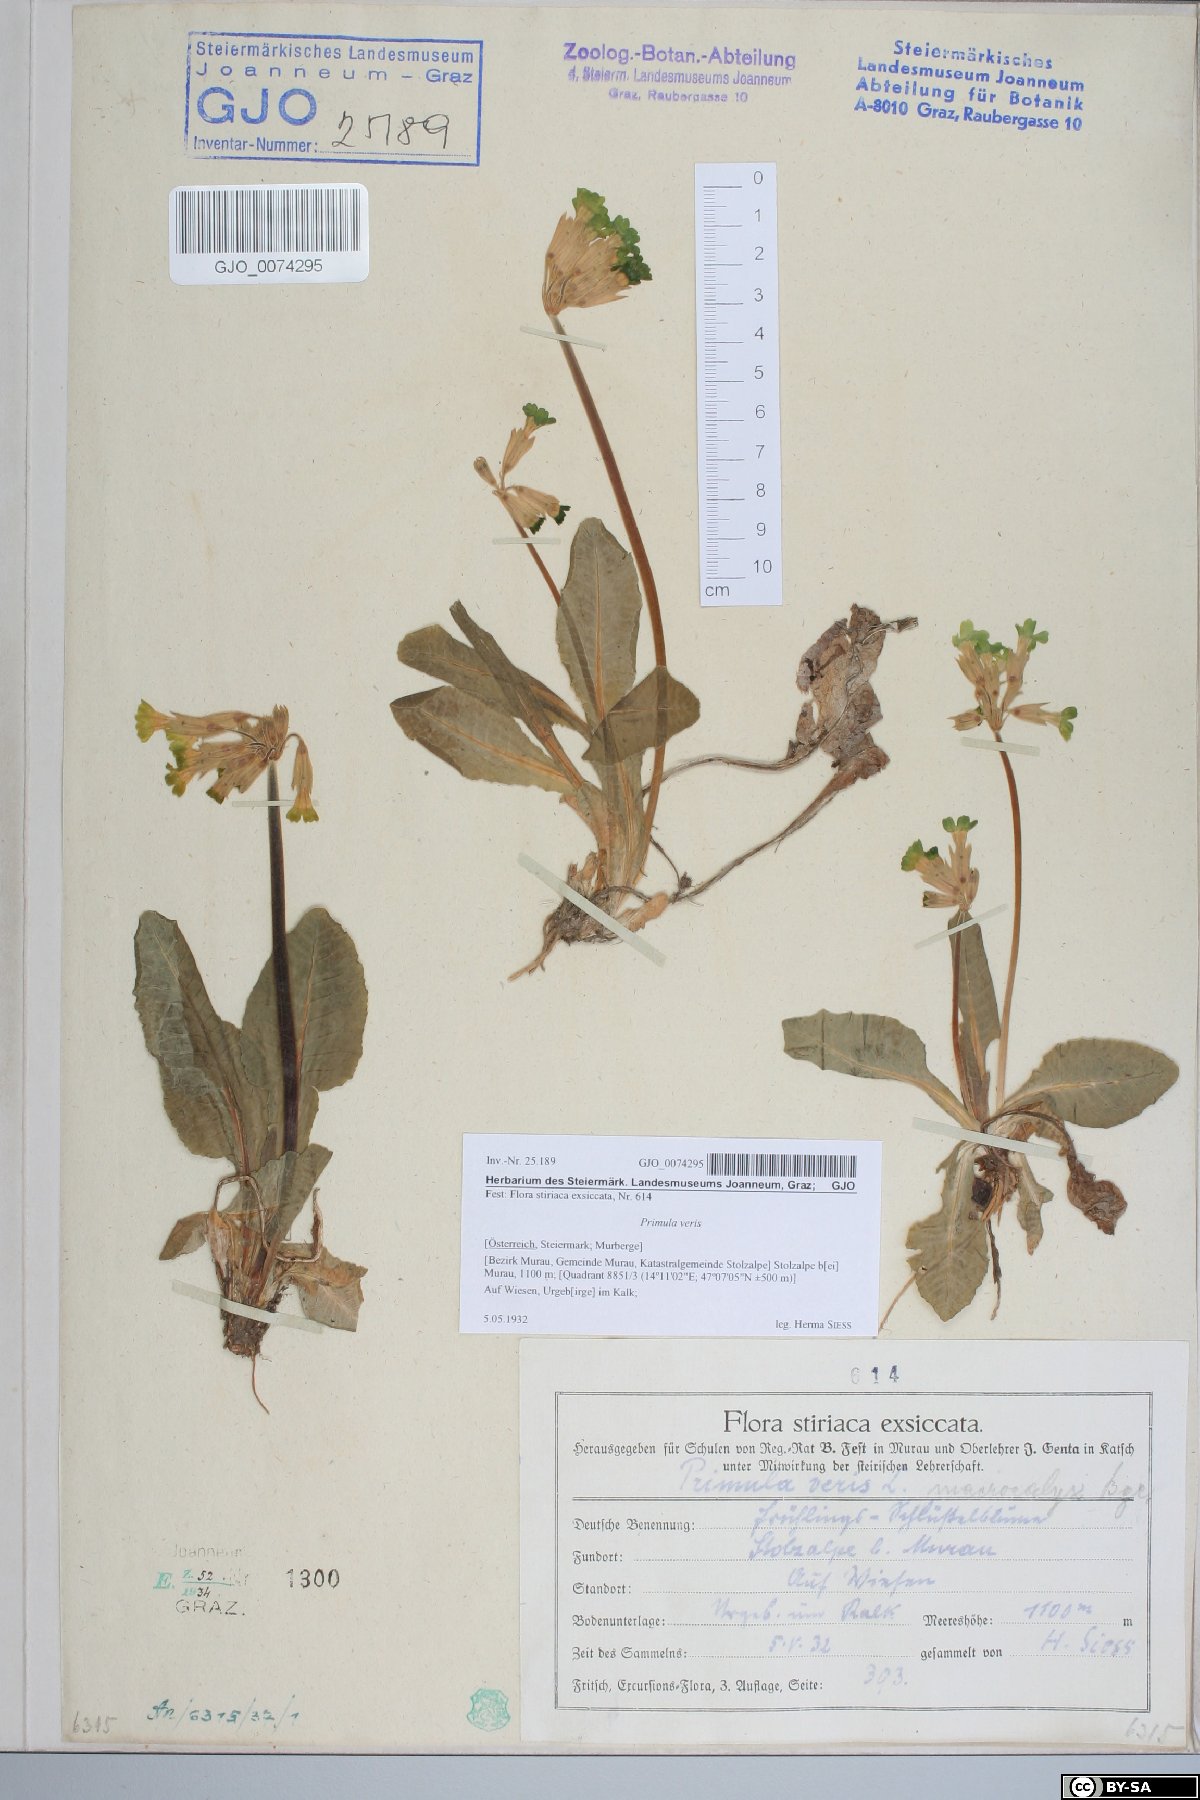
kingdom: Plantae
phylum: Tracheophyta
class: Magnoliopsida
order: Ericales
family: Primulaceae
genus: Primula
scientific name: Primula veris
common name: Cowslip
